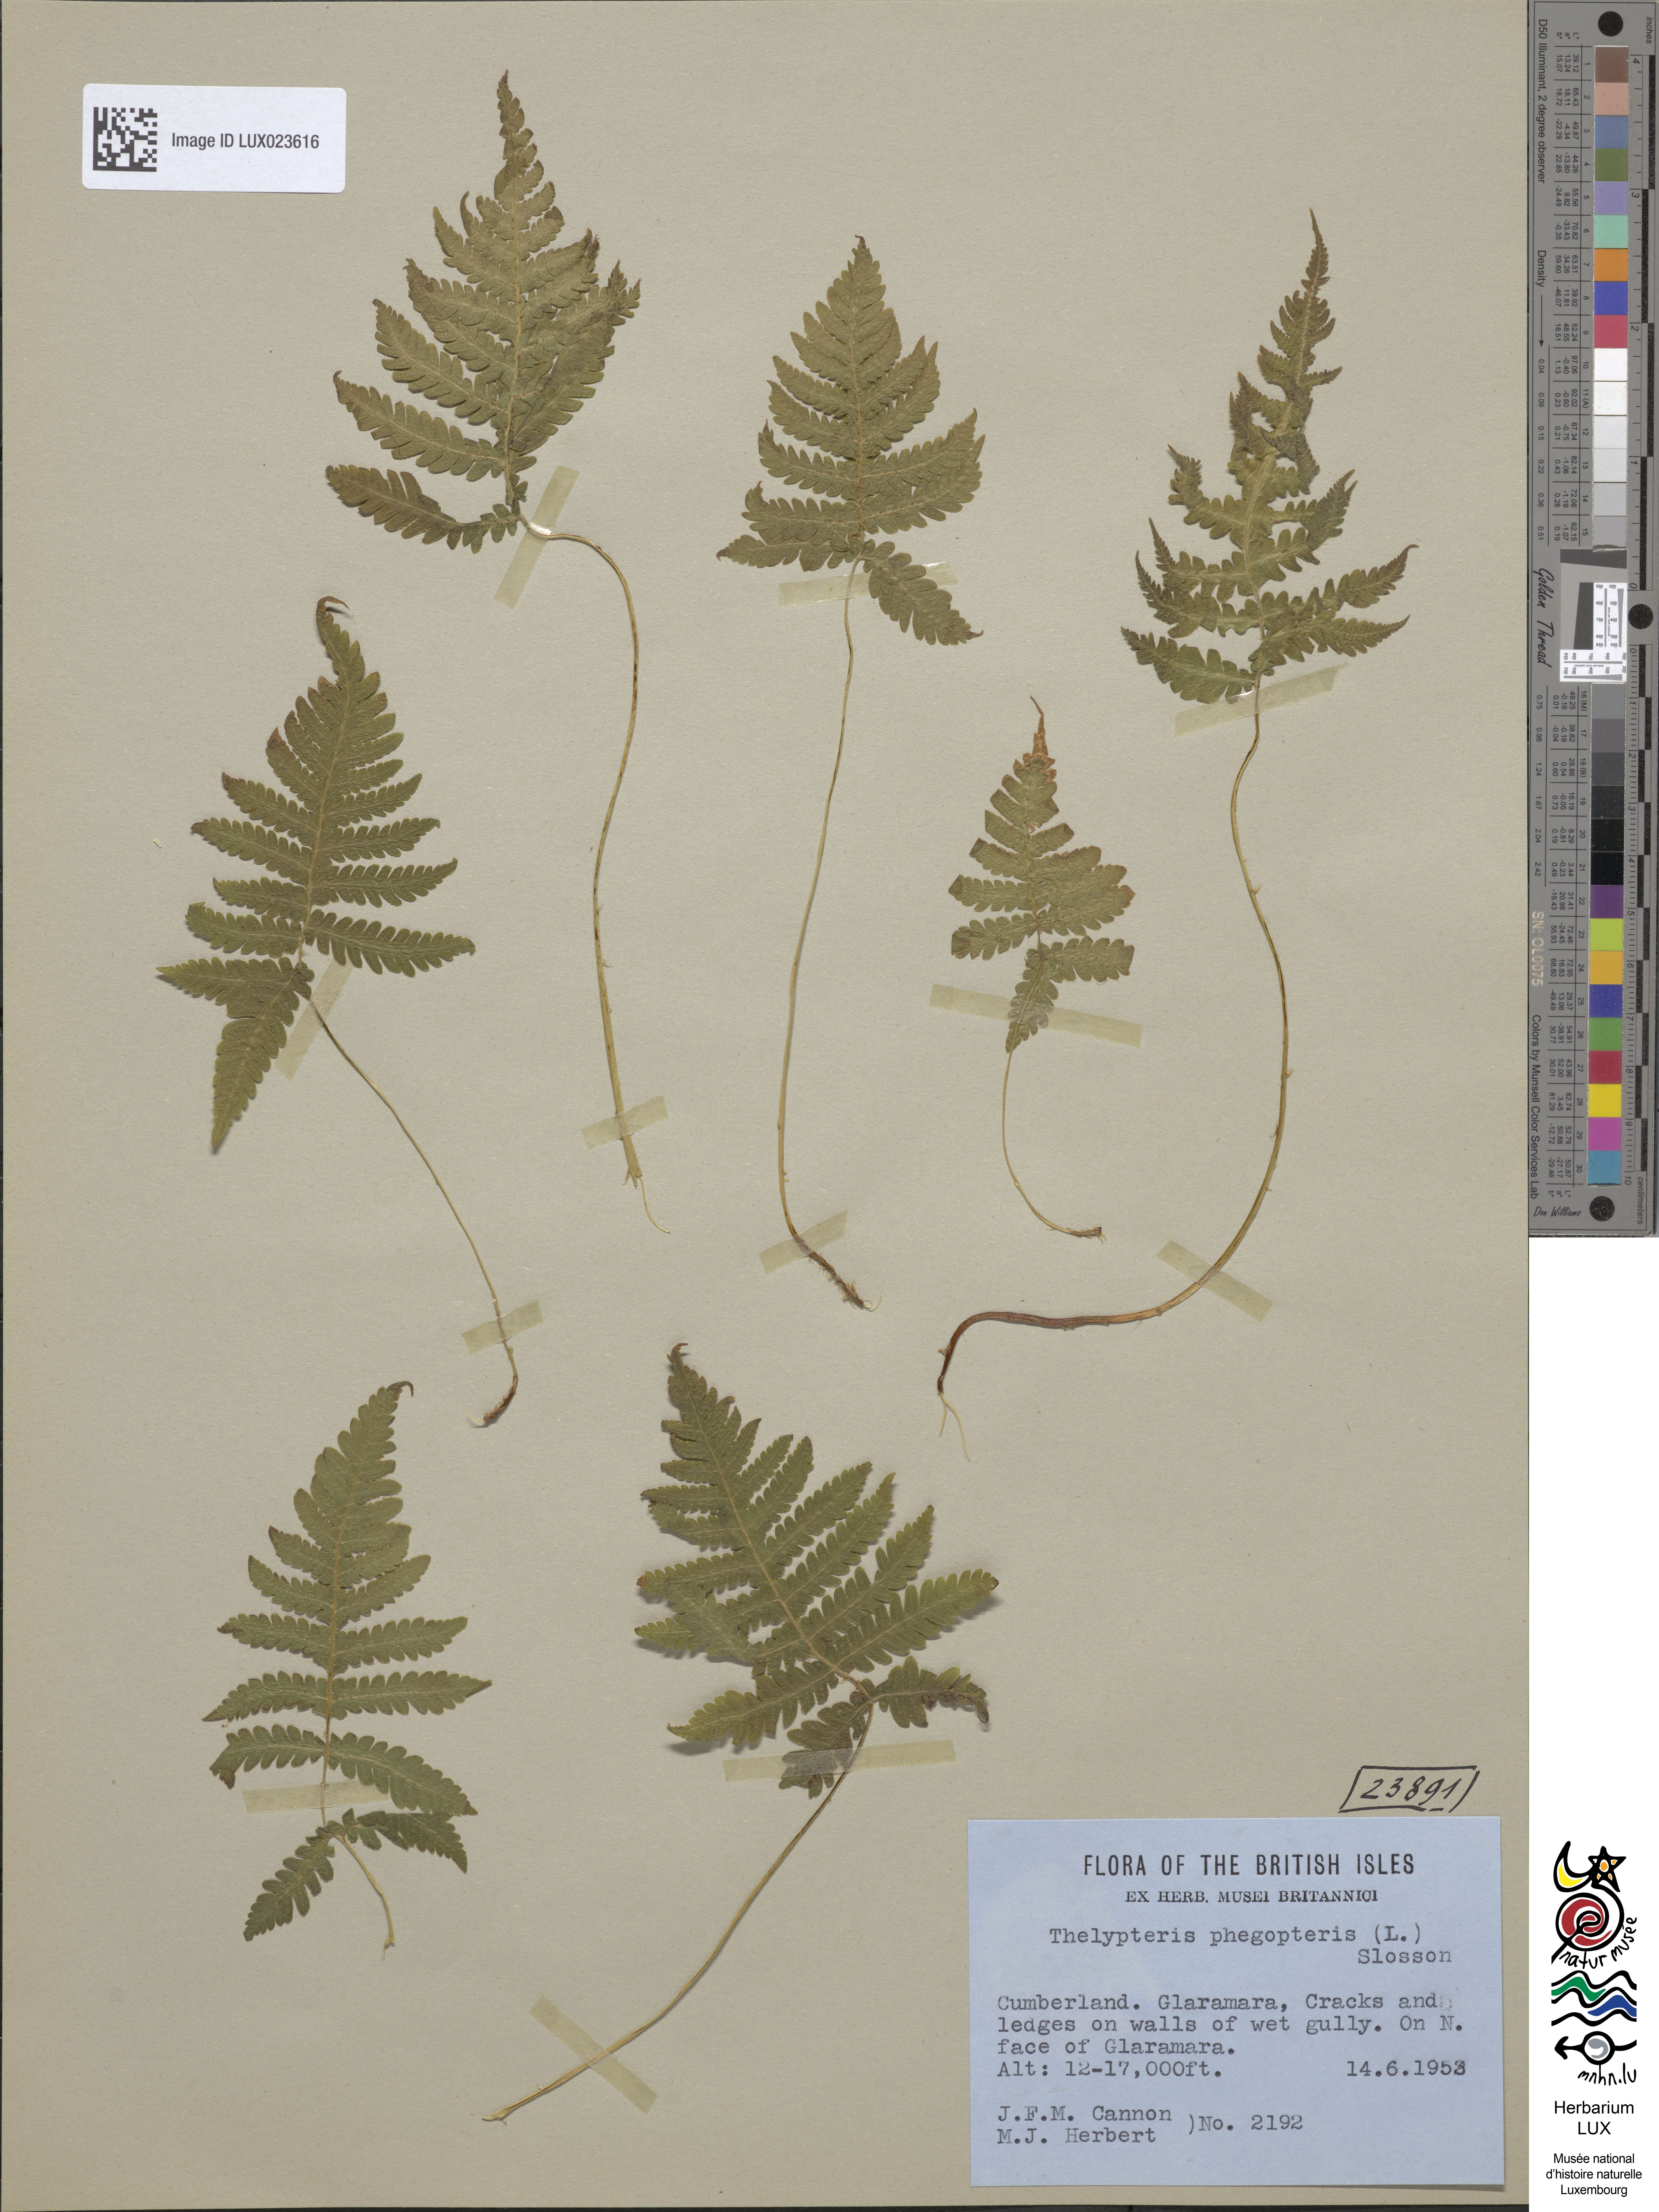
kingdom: Plantae
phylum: Tracheophyta
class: Polypodiopsida
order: Polypodiales
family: Thelypteridaceae
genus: Phegopteris
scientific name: Phegopteris connectilis
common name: Beech fern
